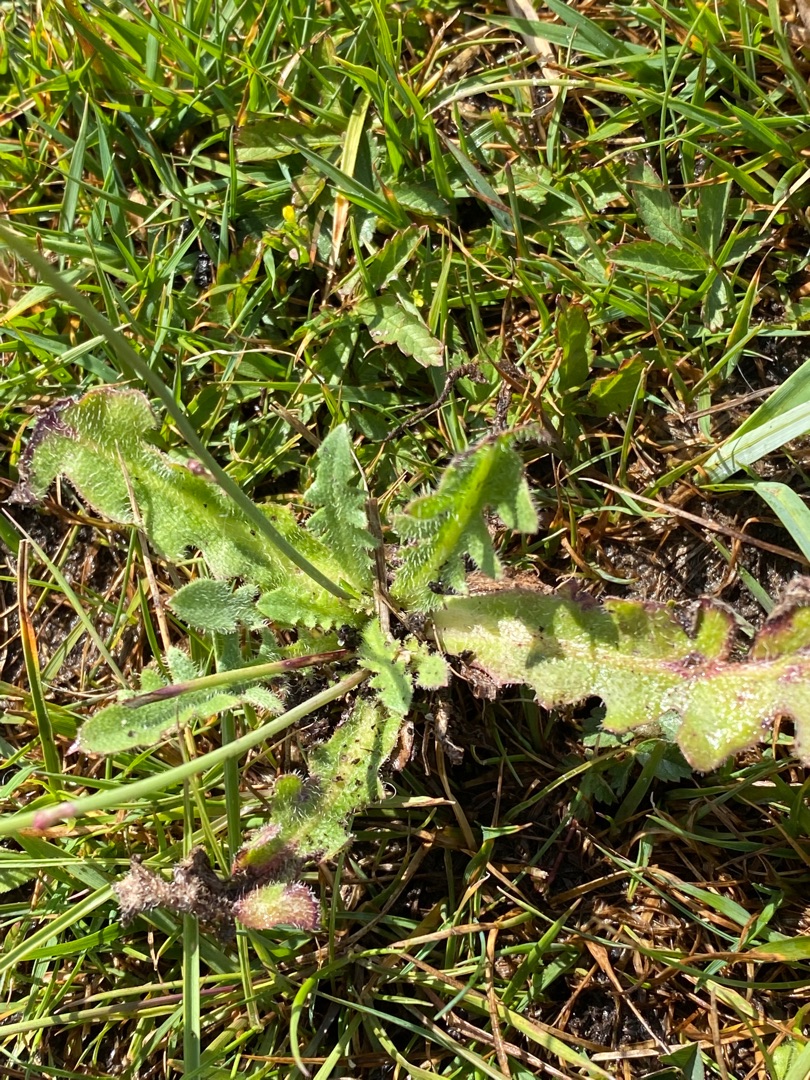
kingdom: Plantae
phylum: Tracheophyta
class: Magnoliopsida
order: Asterales
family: Asteraceae
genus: Hypochaeris
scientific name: Hypochaeris radicata
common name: Almindelig kongepen
